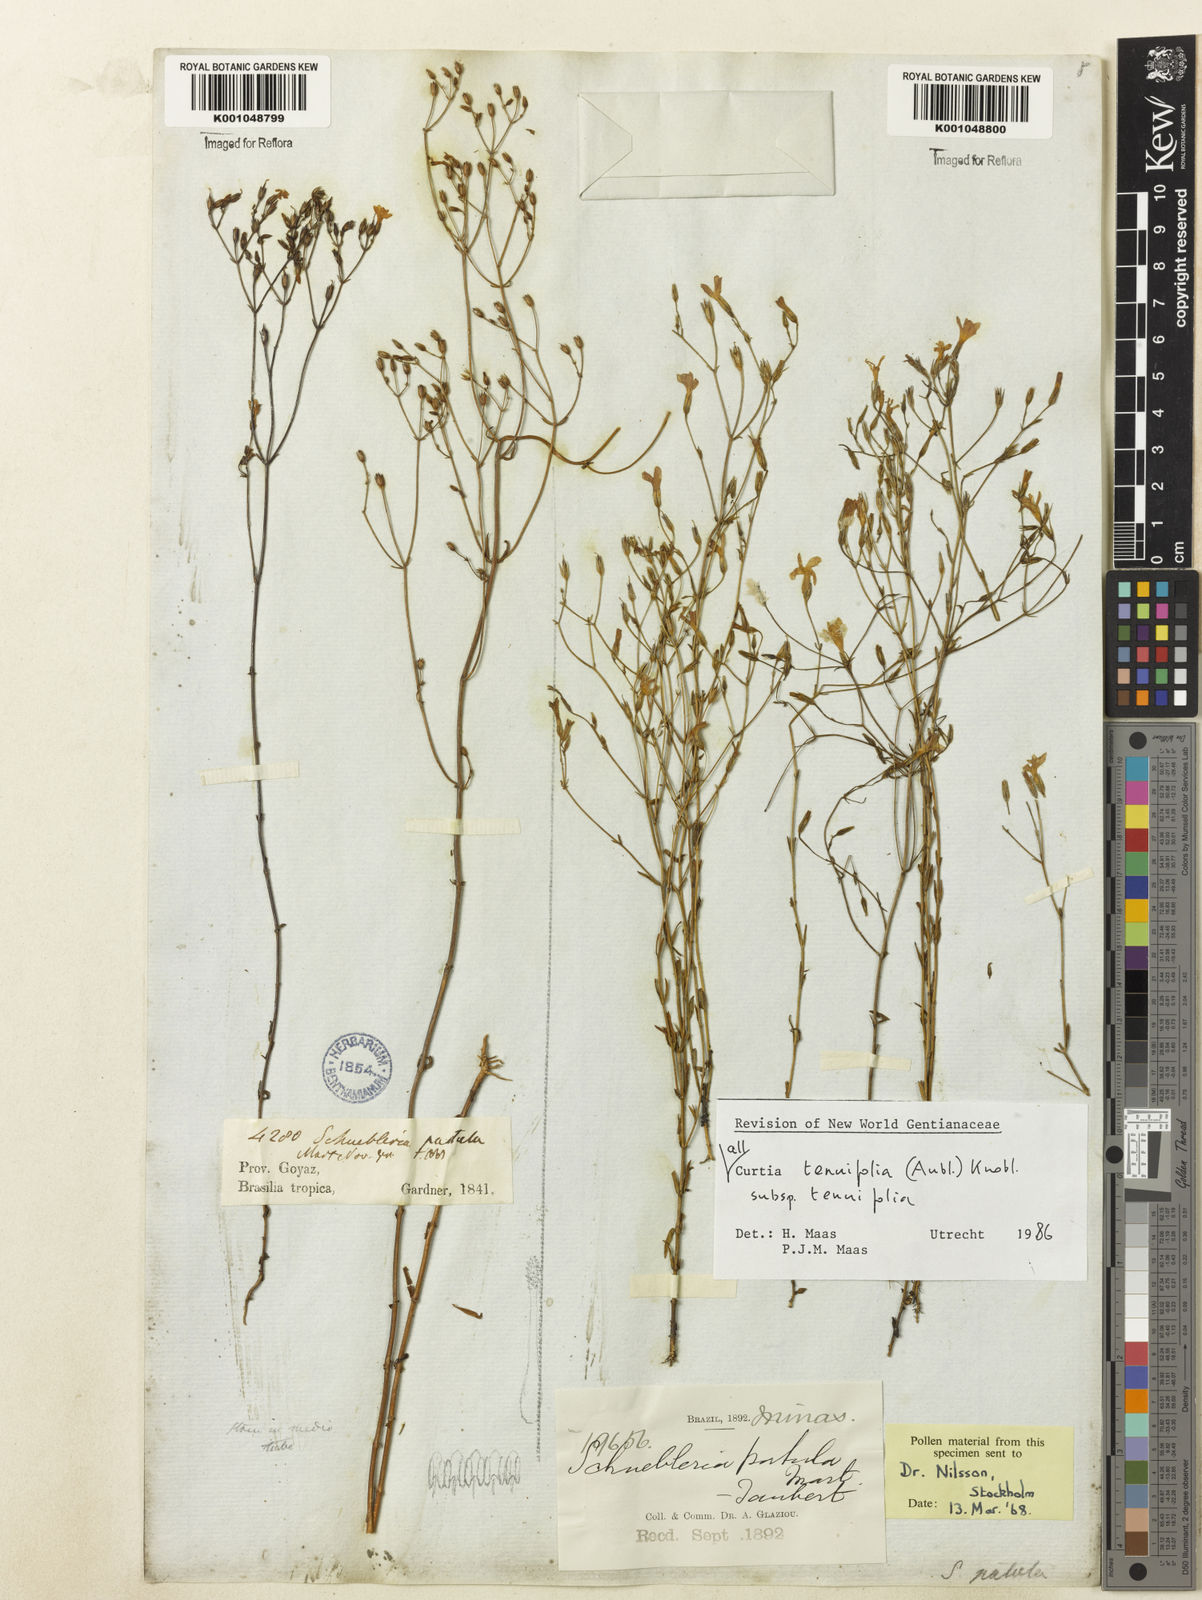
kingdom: Plantae
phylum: Tracheophyta
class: Magnoliopsida
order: Gentianales
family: Gentianaceae
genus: Curtia
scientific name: Curtia tenuifolia
